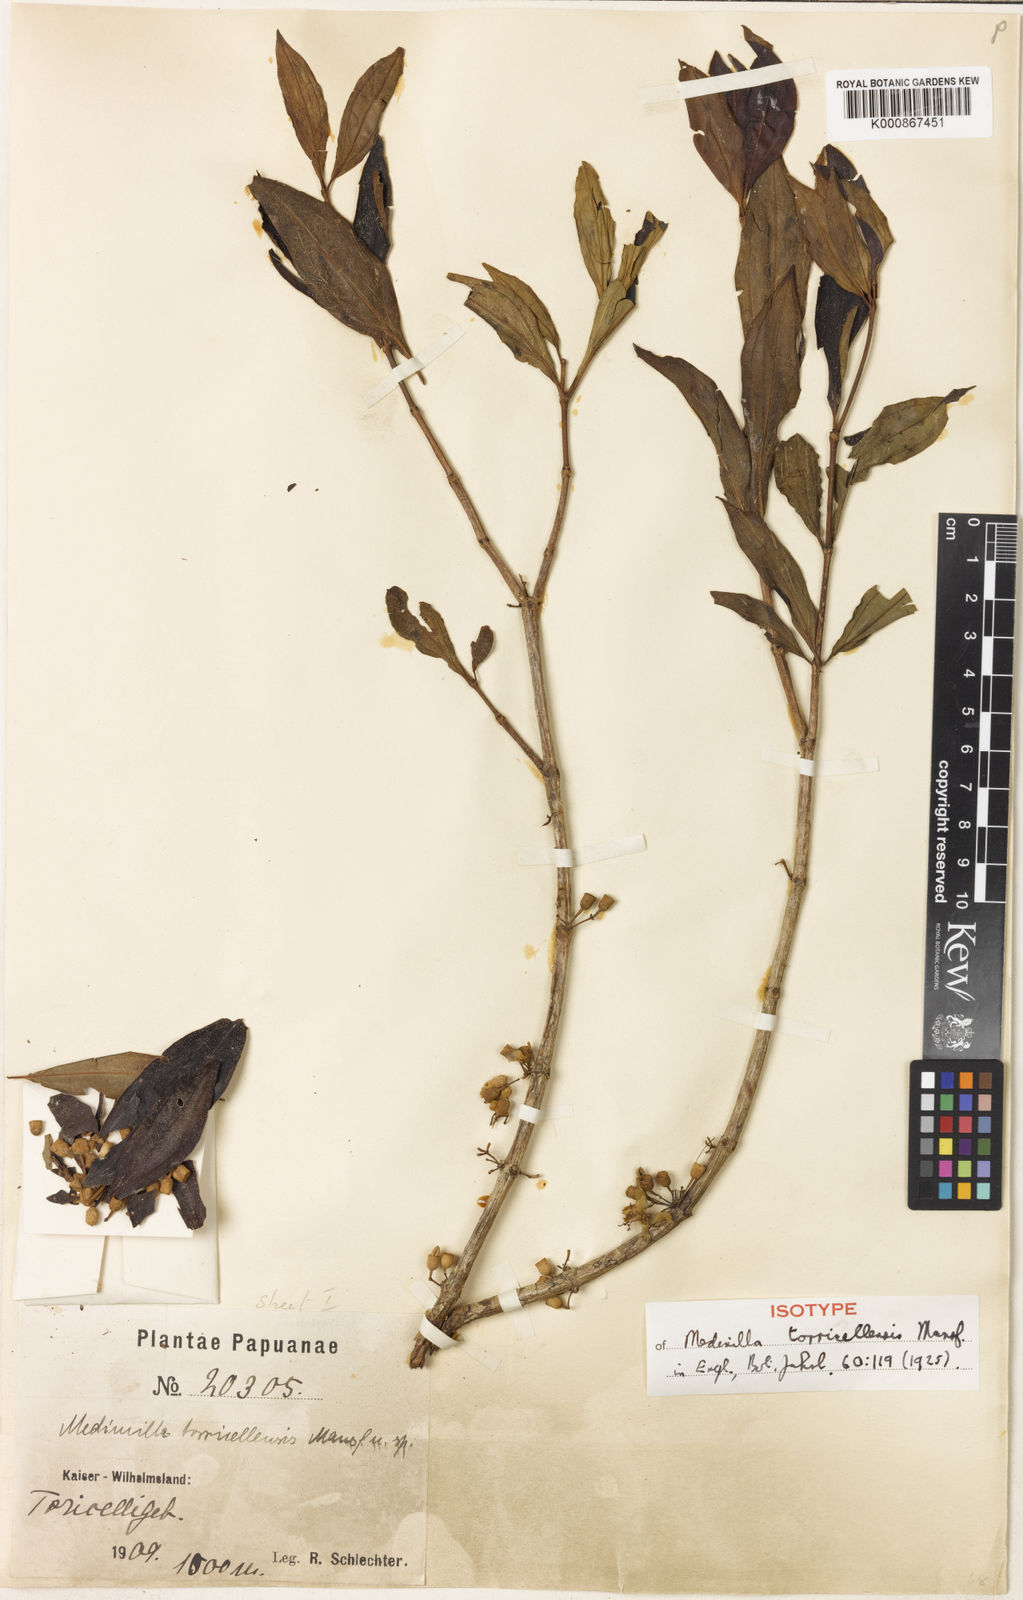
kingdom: Plantae
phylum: Tracheophyta
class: Magnoliopsida
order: Myrtales
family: Melastomataceae
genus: Medinilla
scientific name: Medinilla torricellensis
